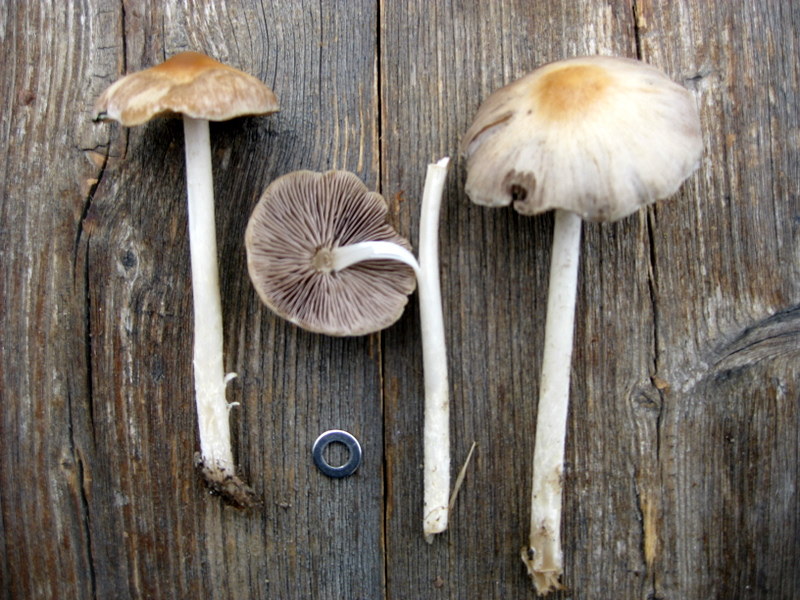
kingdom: Fungi
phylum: Basidiomycota
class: Agaricomycetes
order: Agaricales
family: Psathyrellaceae
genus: Psathyrella
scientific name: Psathyrella spadiceogrisea
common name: gråbrun mørkhat
